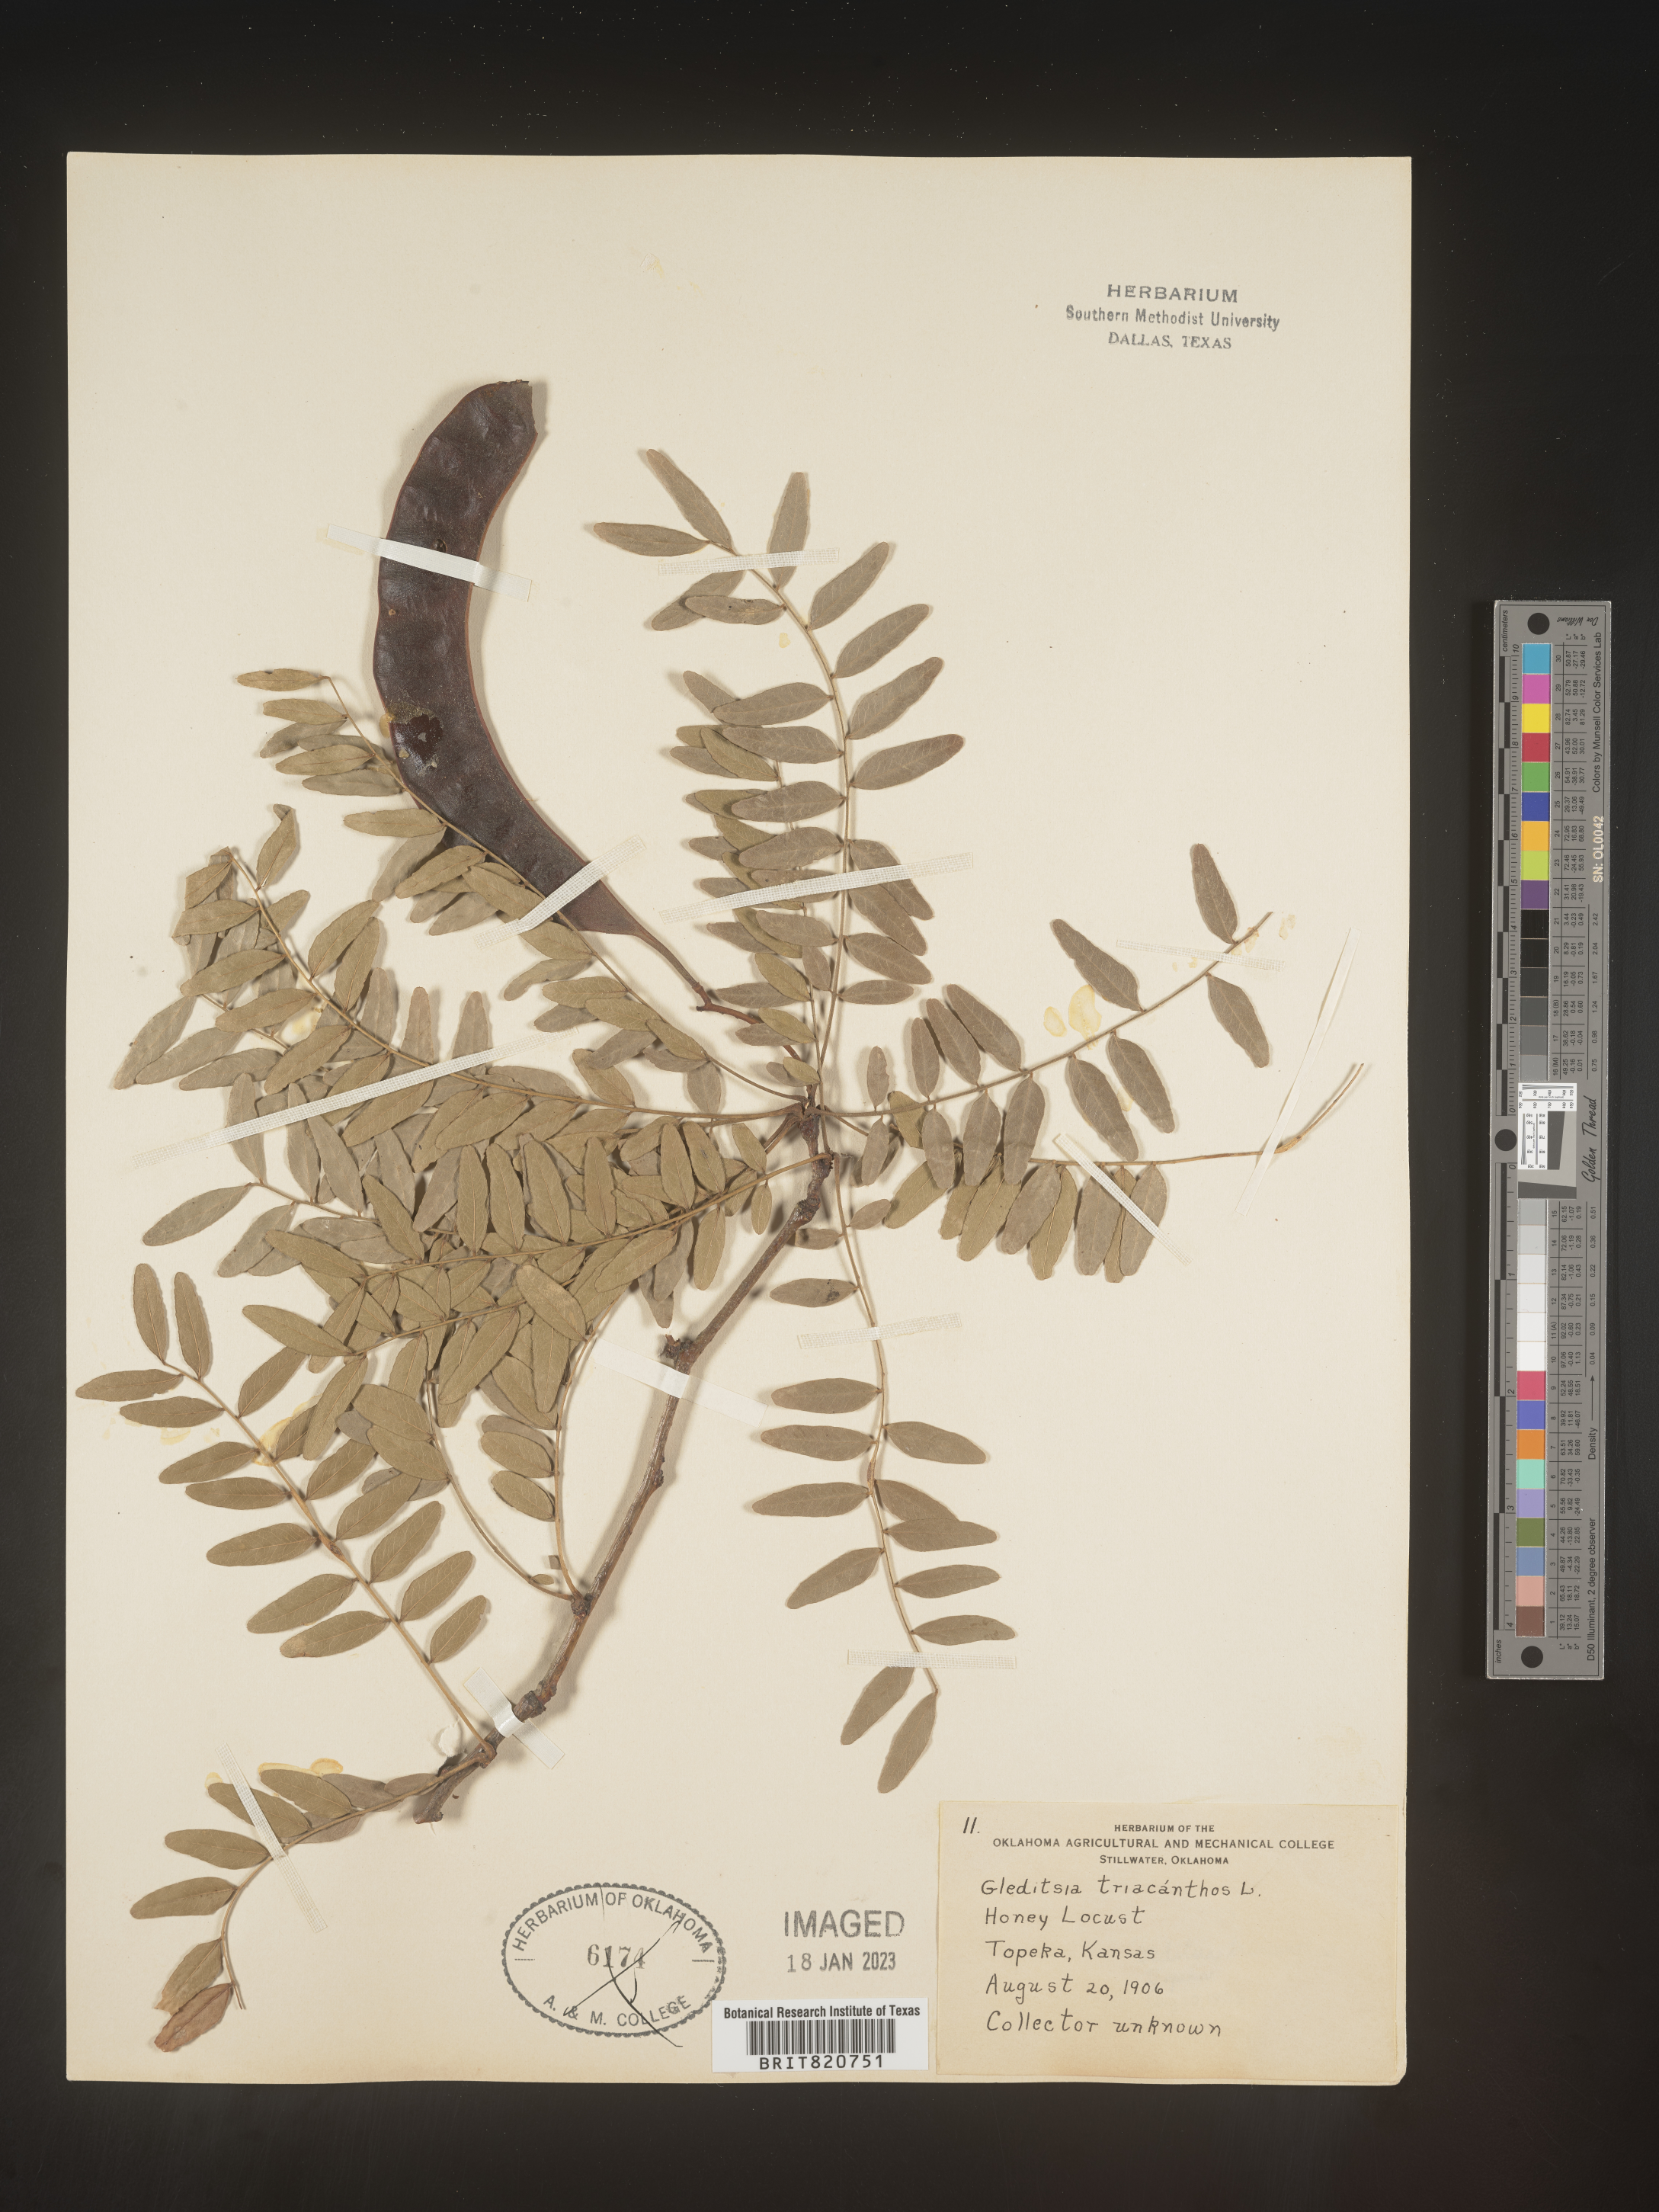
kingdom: Plantae
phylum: Tracheophyta
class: Magnoliopsida
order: Fabales
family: Fabaceae
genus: Gleditsia
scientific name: Gleditsia triacanthos
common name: Common honeylocust
